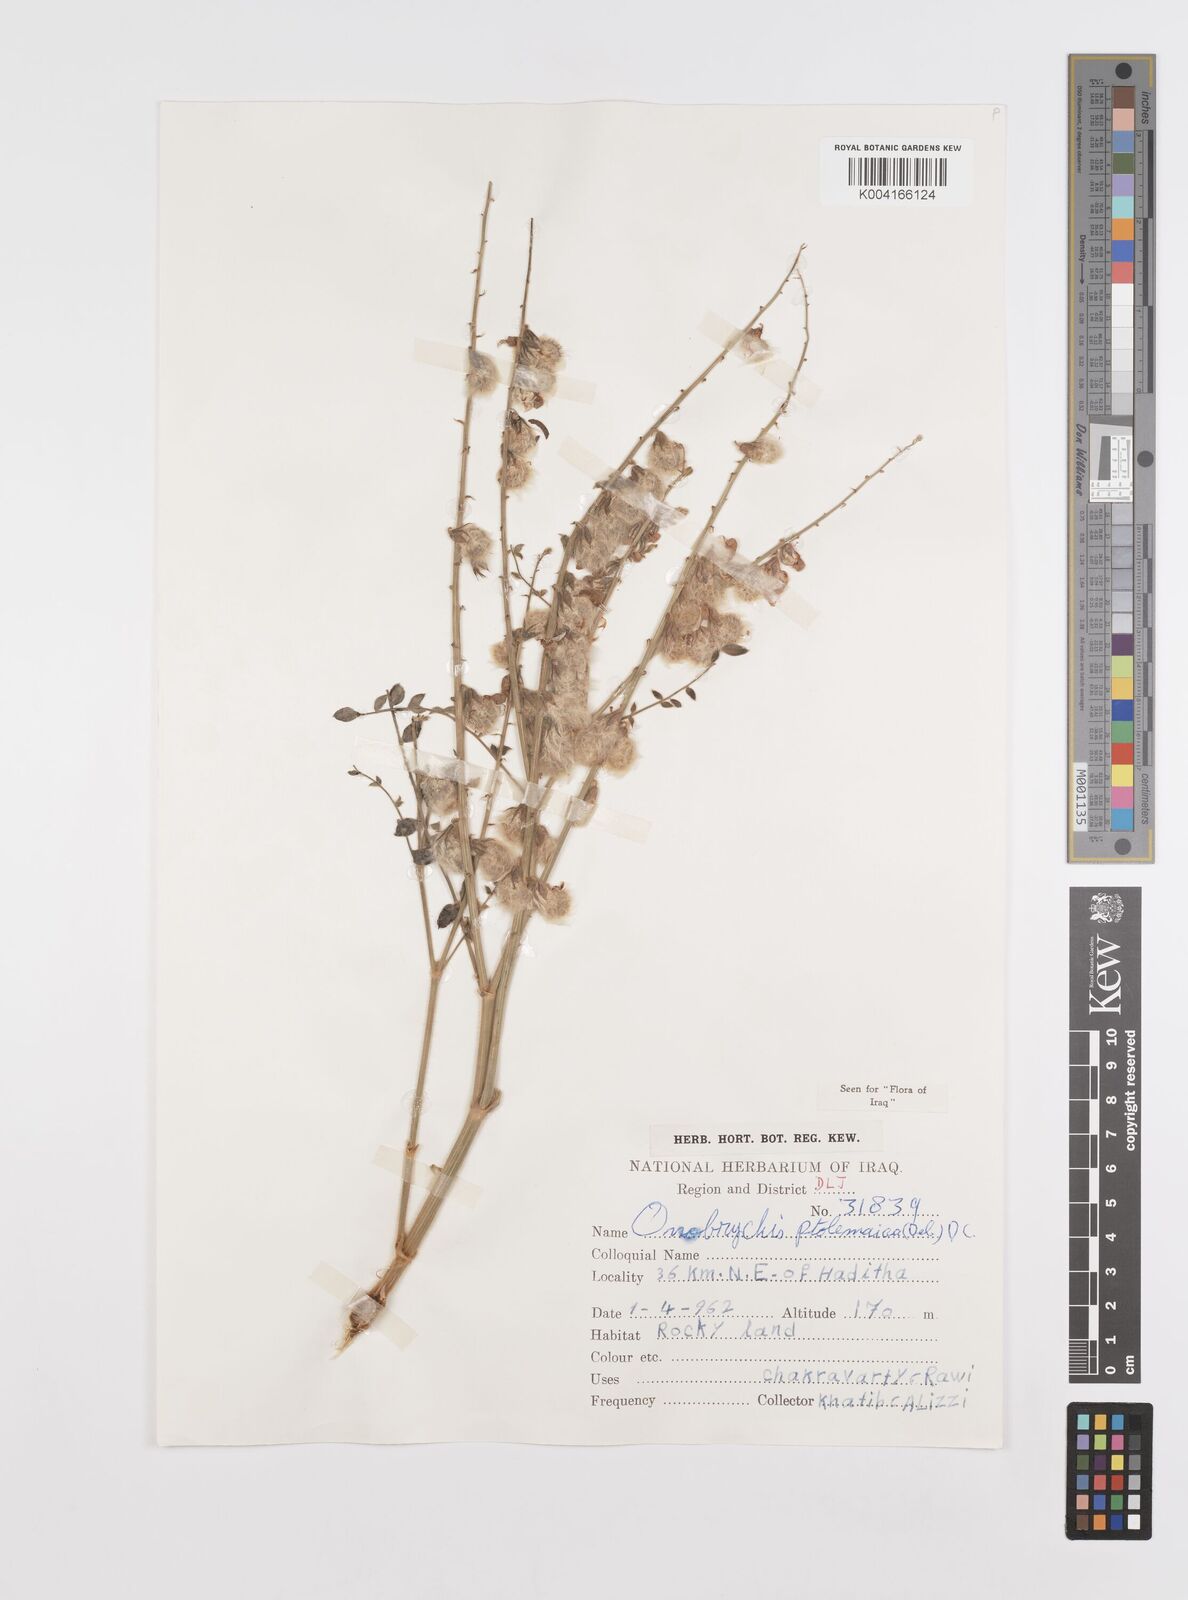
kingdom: Plantae
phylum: Tracheophyta
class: Magnoliopsida
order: Fabales
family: Fabaceae
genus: Onobrychis
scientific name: Onobrychis ptolemaica
